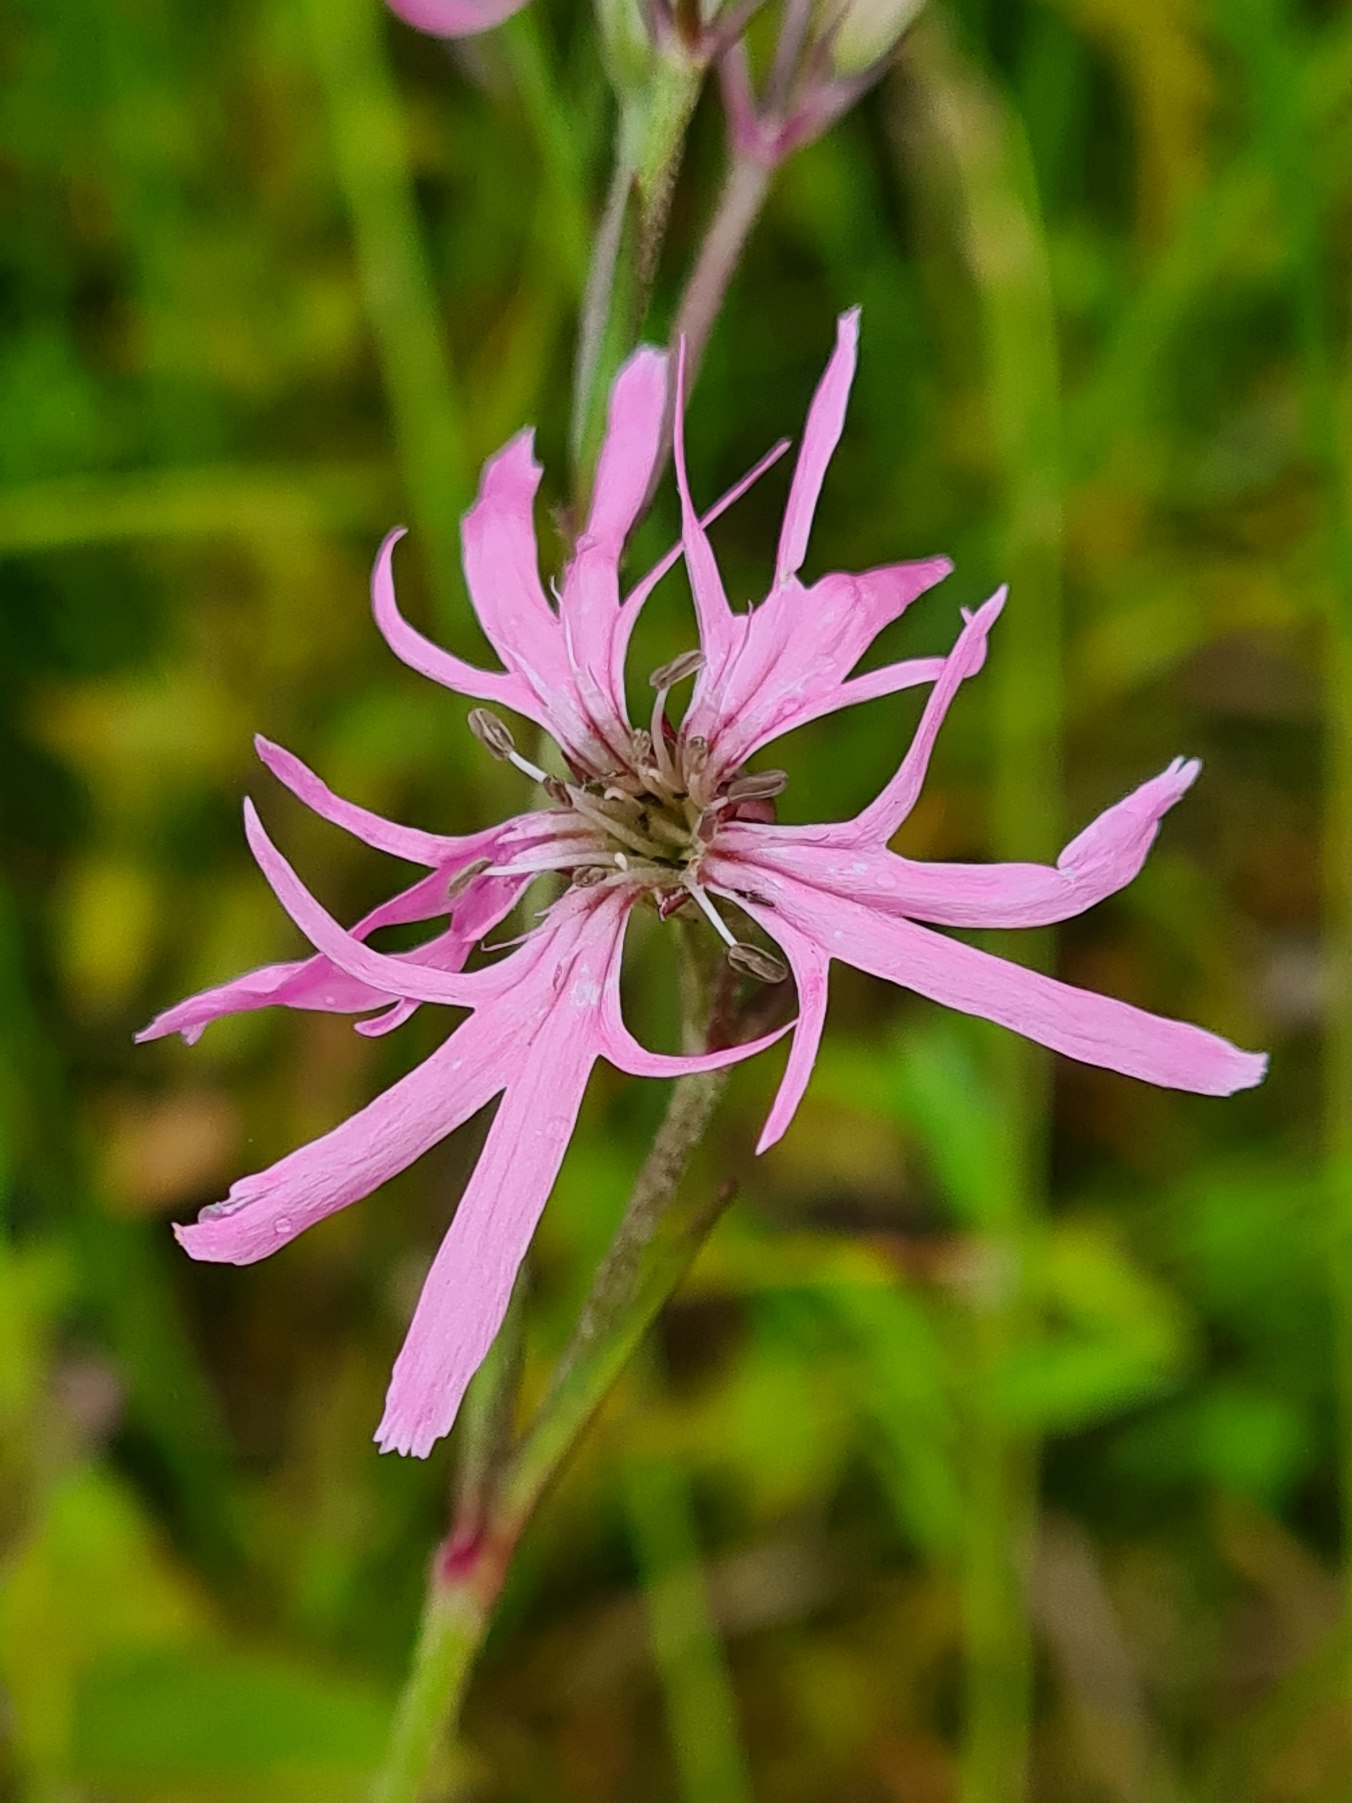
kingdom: Plantae
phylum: Tracheophyta
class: Magnoliopsida
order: Caryophyllales
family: Caryophyllaceae
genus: Silene
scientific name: Silene flos-cuculi
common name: Trævlekrone
